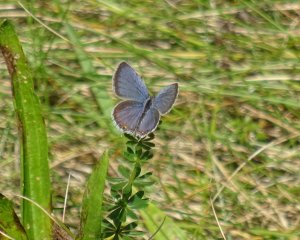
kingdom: Animalia
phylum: Arthropoda
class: Insecta
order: Lepidoptera
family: Lycaenidae
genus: Elkalyce
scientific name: Elkalyce comyntas
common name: Eastern Tailed-Blue
